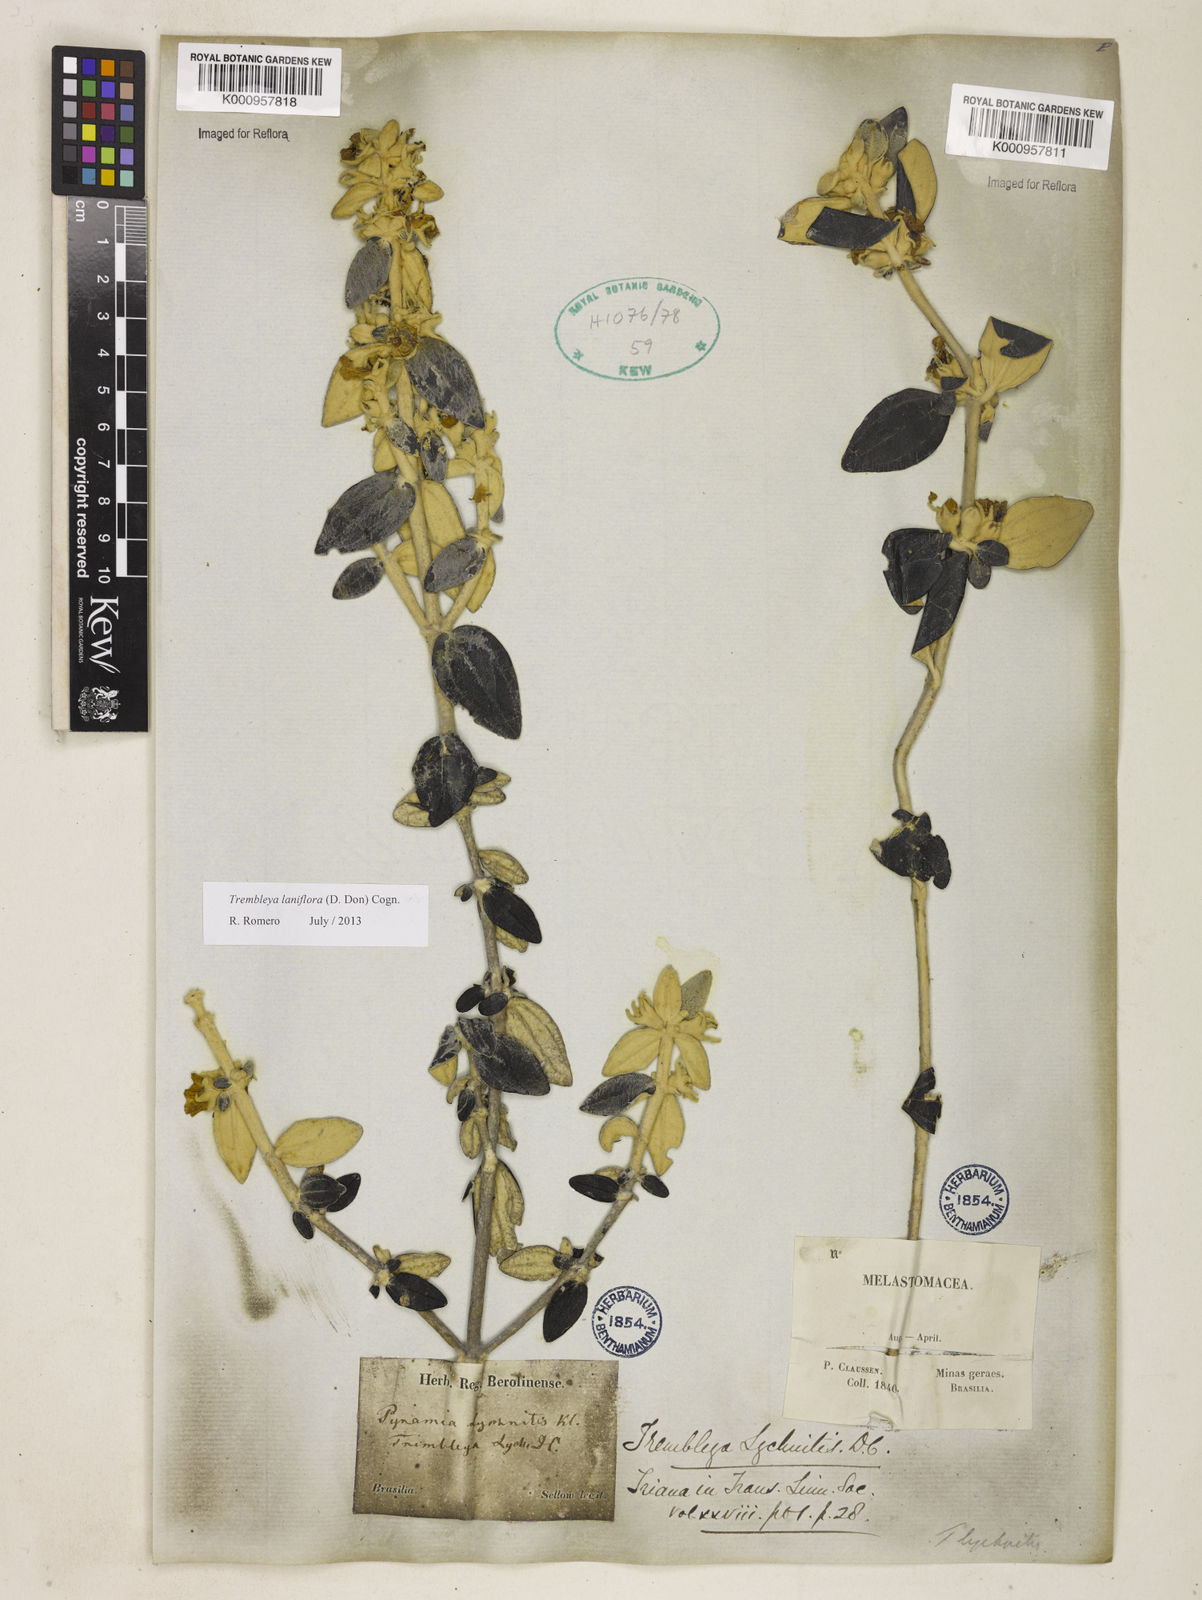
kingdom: Plantae
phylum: Tracheophyta
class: Magnoliopsida
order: Myrtales
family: Melastomataceae
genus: Microlicia
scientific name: Microlicia laniflora
